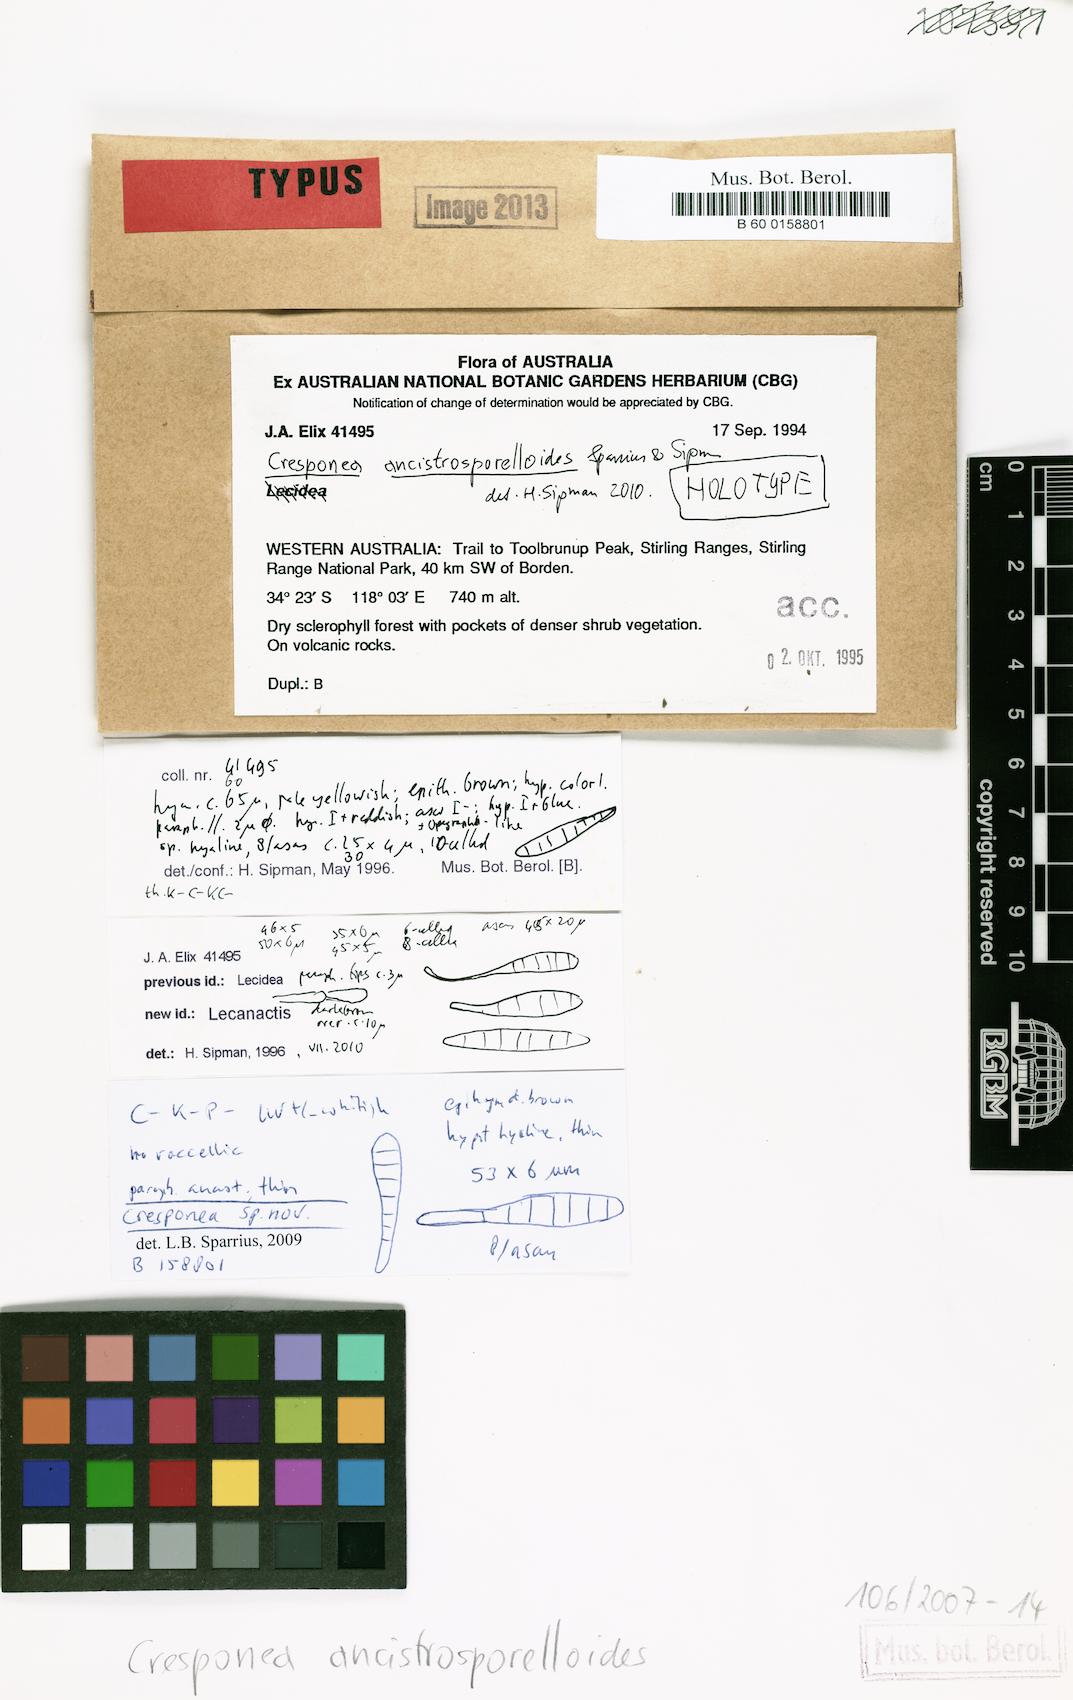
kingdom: Fungi
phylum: Ascomycota
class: Arthoniomycetes
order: Arthoniales
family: Opegraphaceae
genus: Cresponea
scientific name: Cresponea ancistrosporelloides
